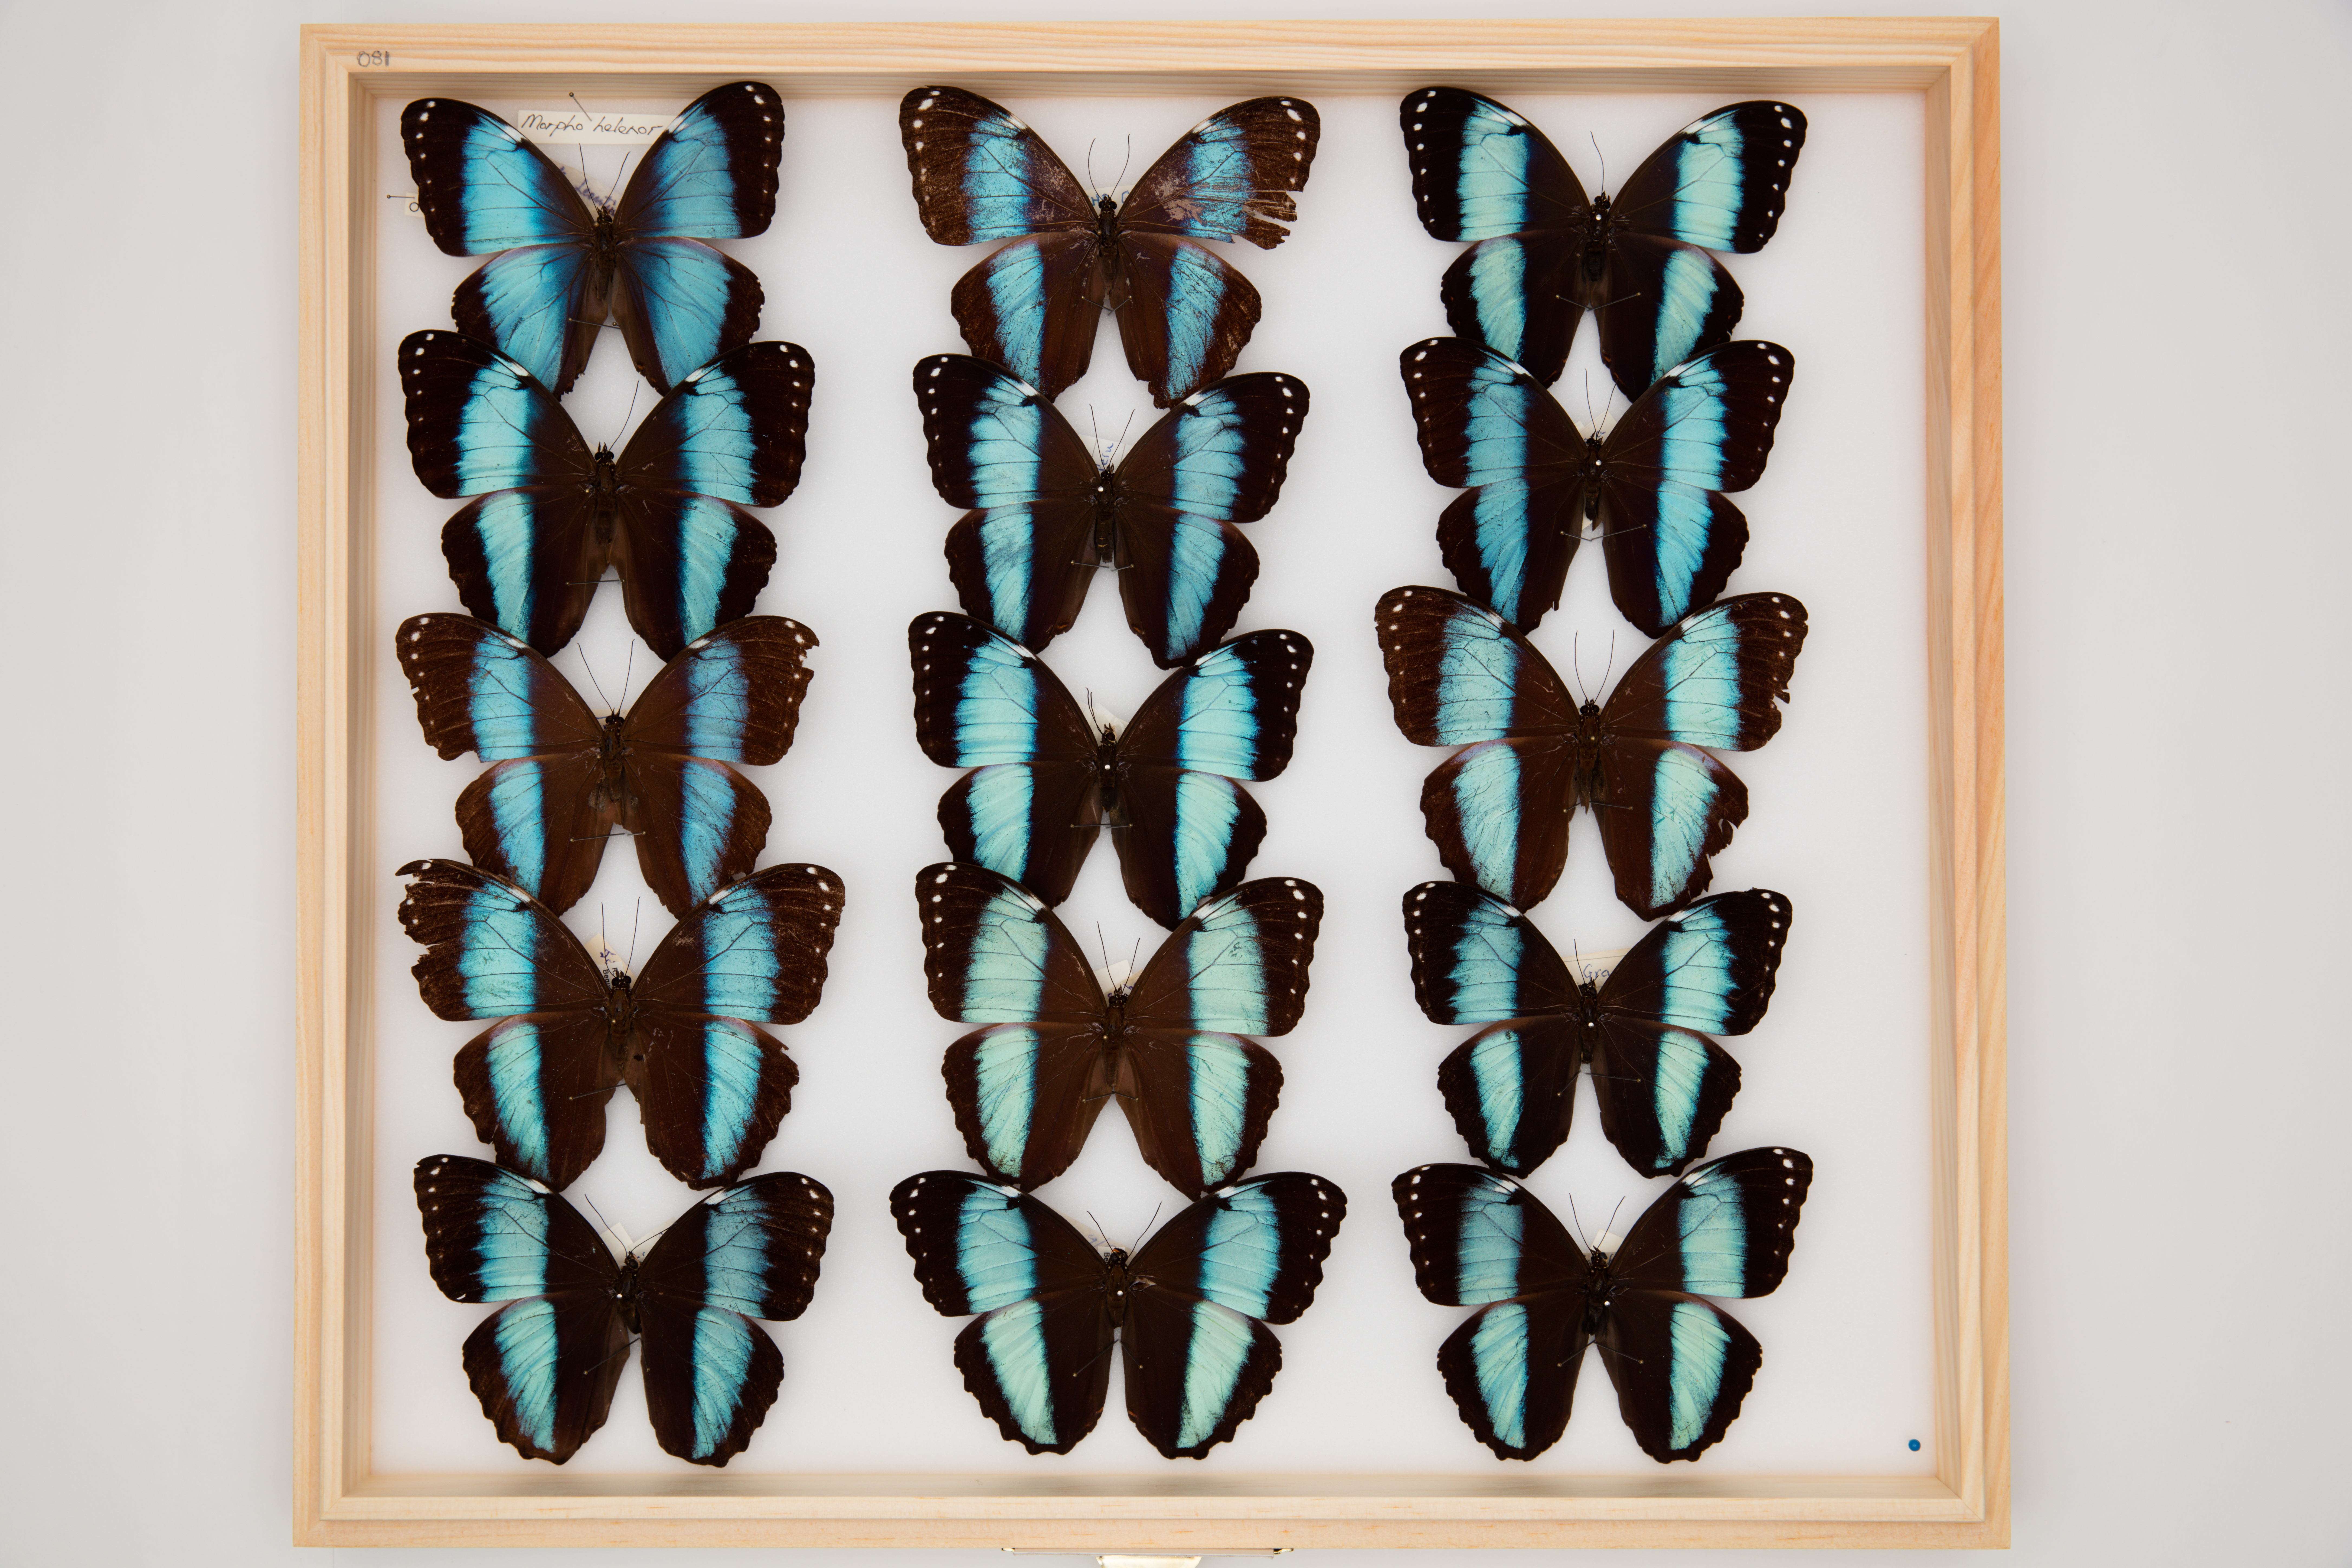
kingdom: Animalia
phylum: Arthropoda
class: Insecta
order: Lepidoptera
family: Nymphalidae
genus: Morpho
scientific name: Morpho helenor
